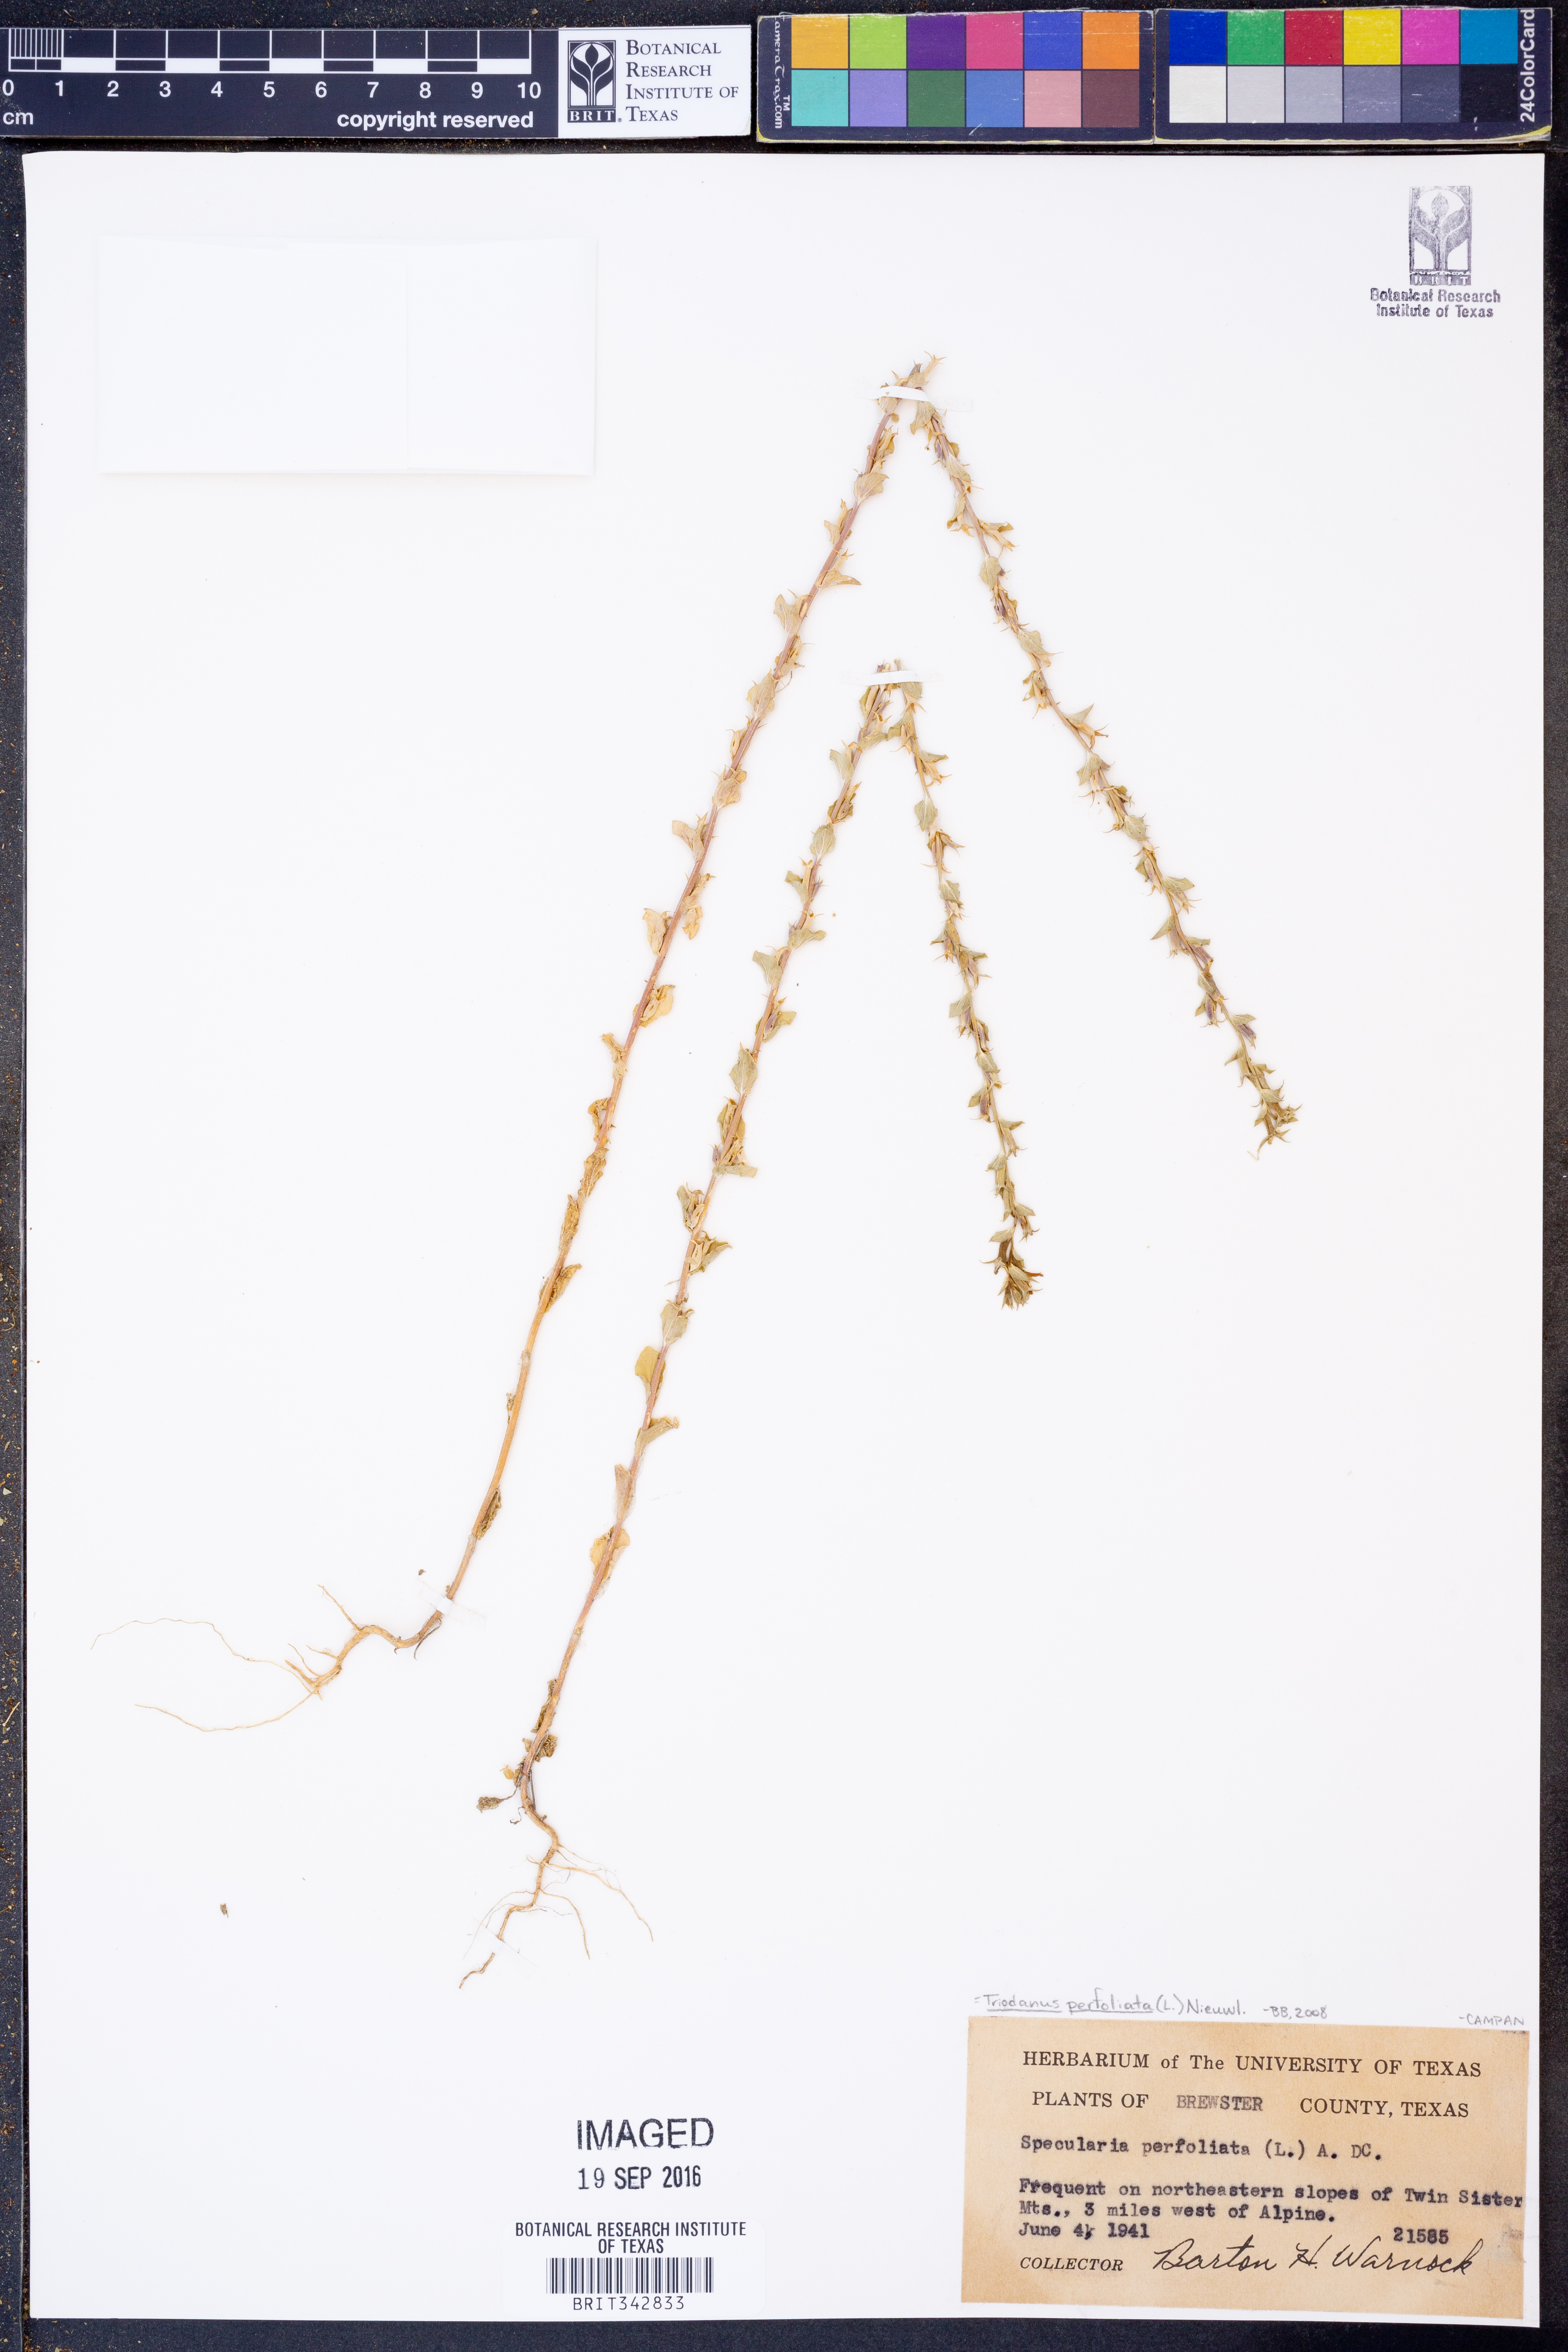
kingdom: Plantae
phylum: Tracheophyta
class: Magnoliopsida
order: Asterales
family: Campanulaceae
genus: Triodanis
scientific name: Triodanis perfoliata
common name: Clasping venus' looking-glass
